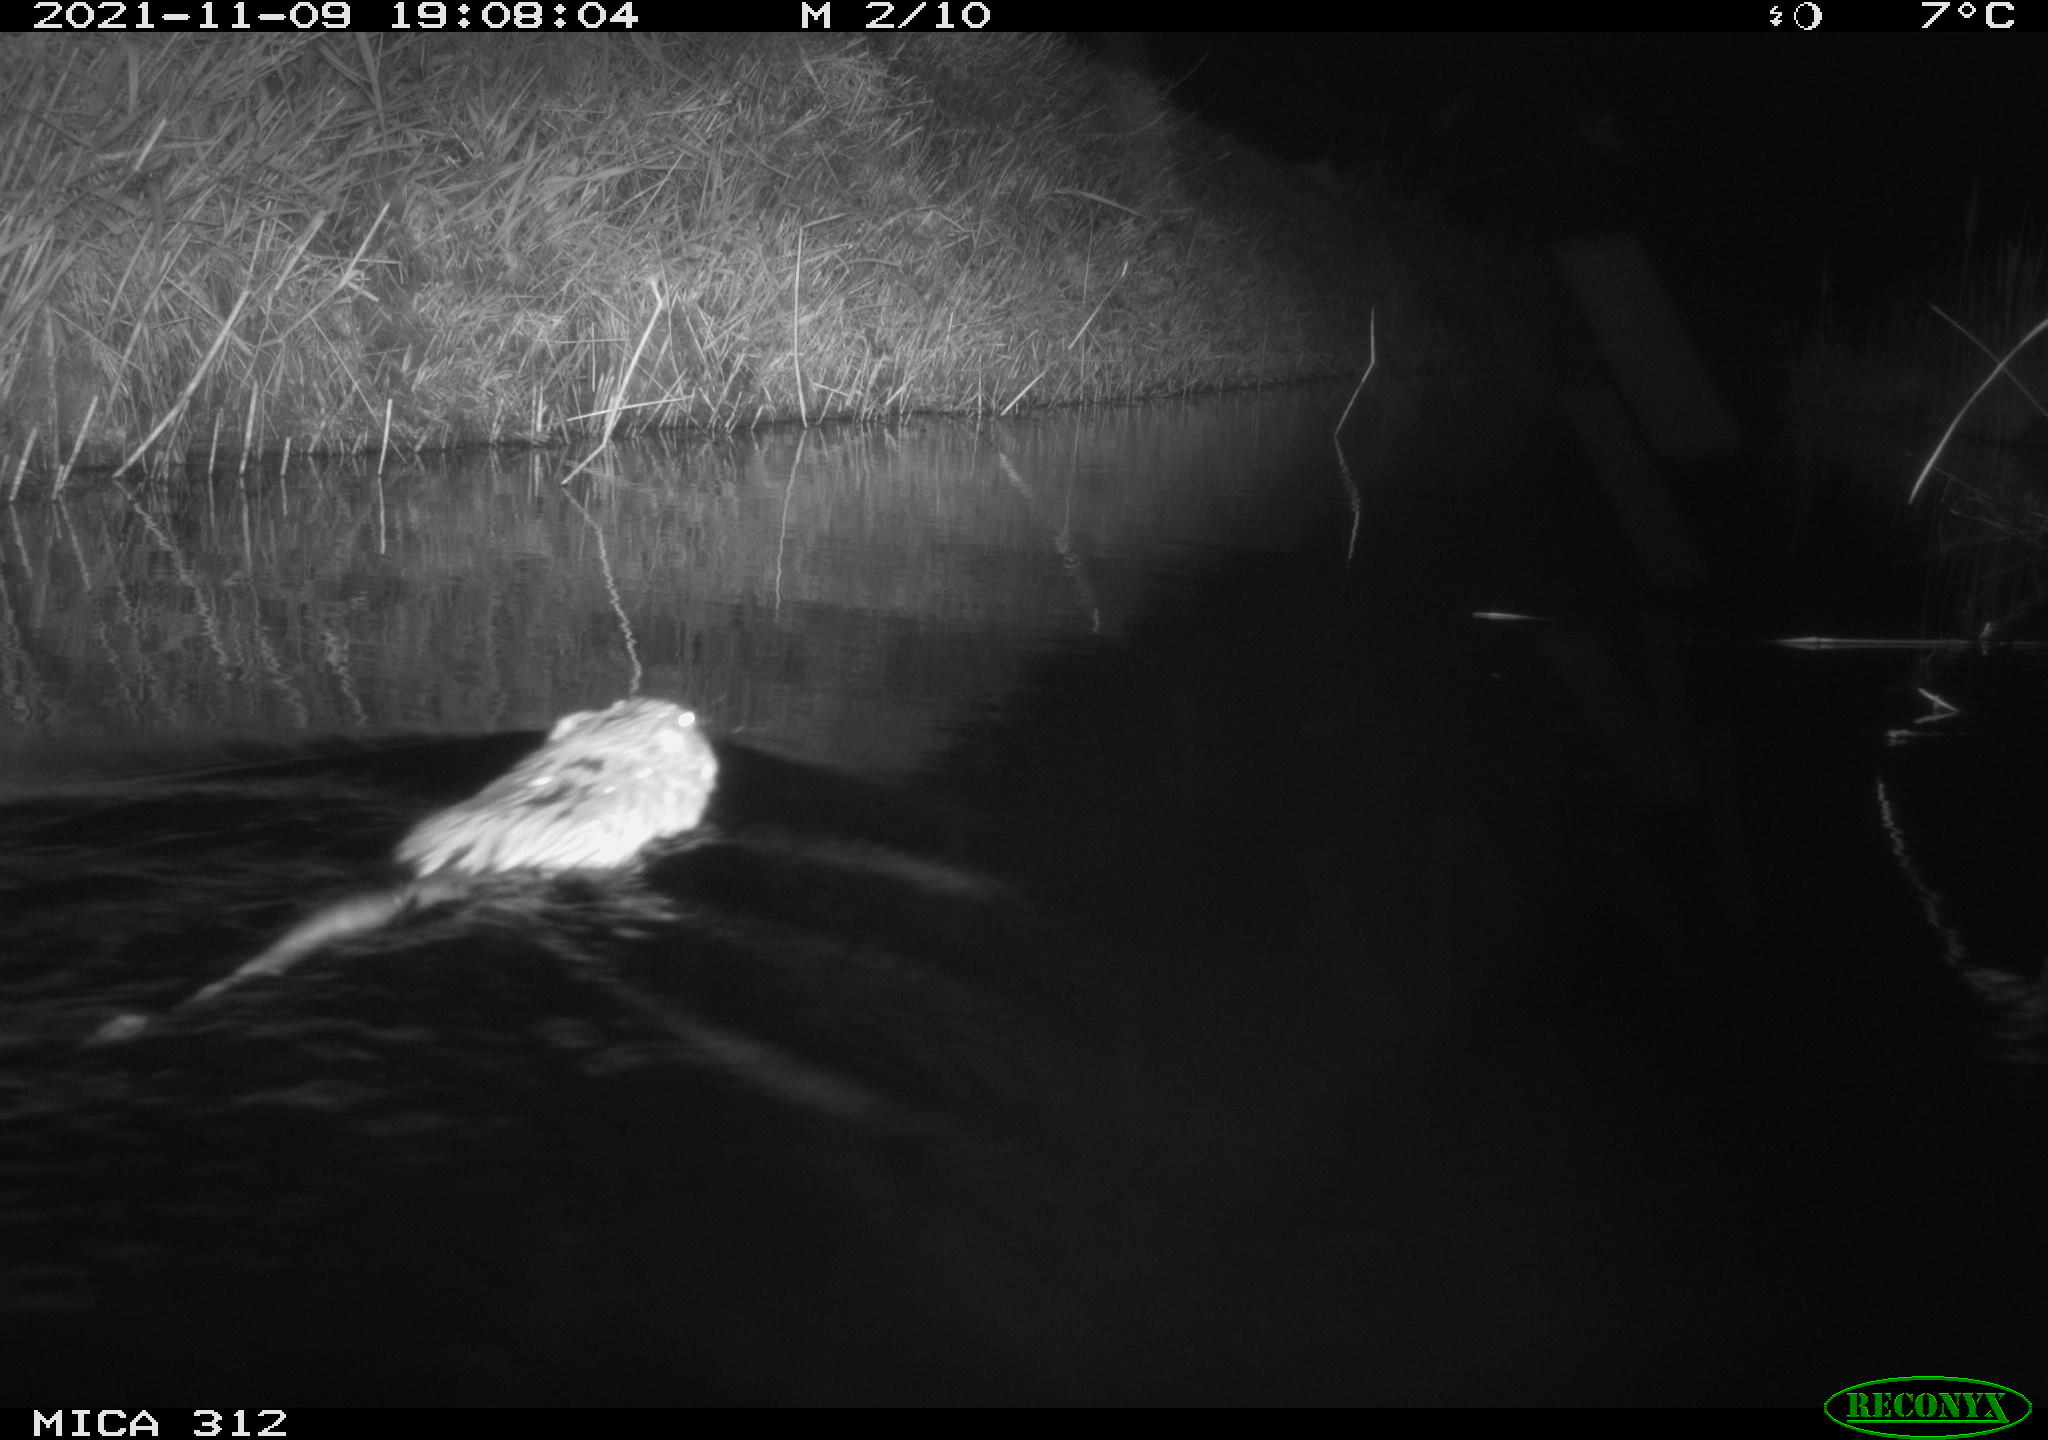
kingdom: Animalia
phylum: Chordata
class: Mammalia
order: Rodentia
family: Cricetidae
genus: Ondatra
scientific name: Ondatra zibethicus
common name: Muskrat
